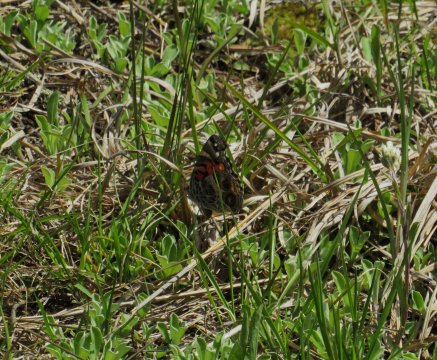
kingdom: Animalia
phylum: Arthropoda
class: Insecta
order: Lepidoptera
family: Nymphalidae
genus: Vanessa
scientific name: Vanessa virginiensis
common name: American Lady
